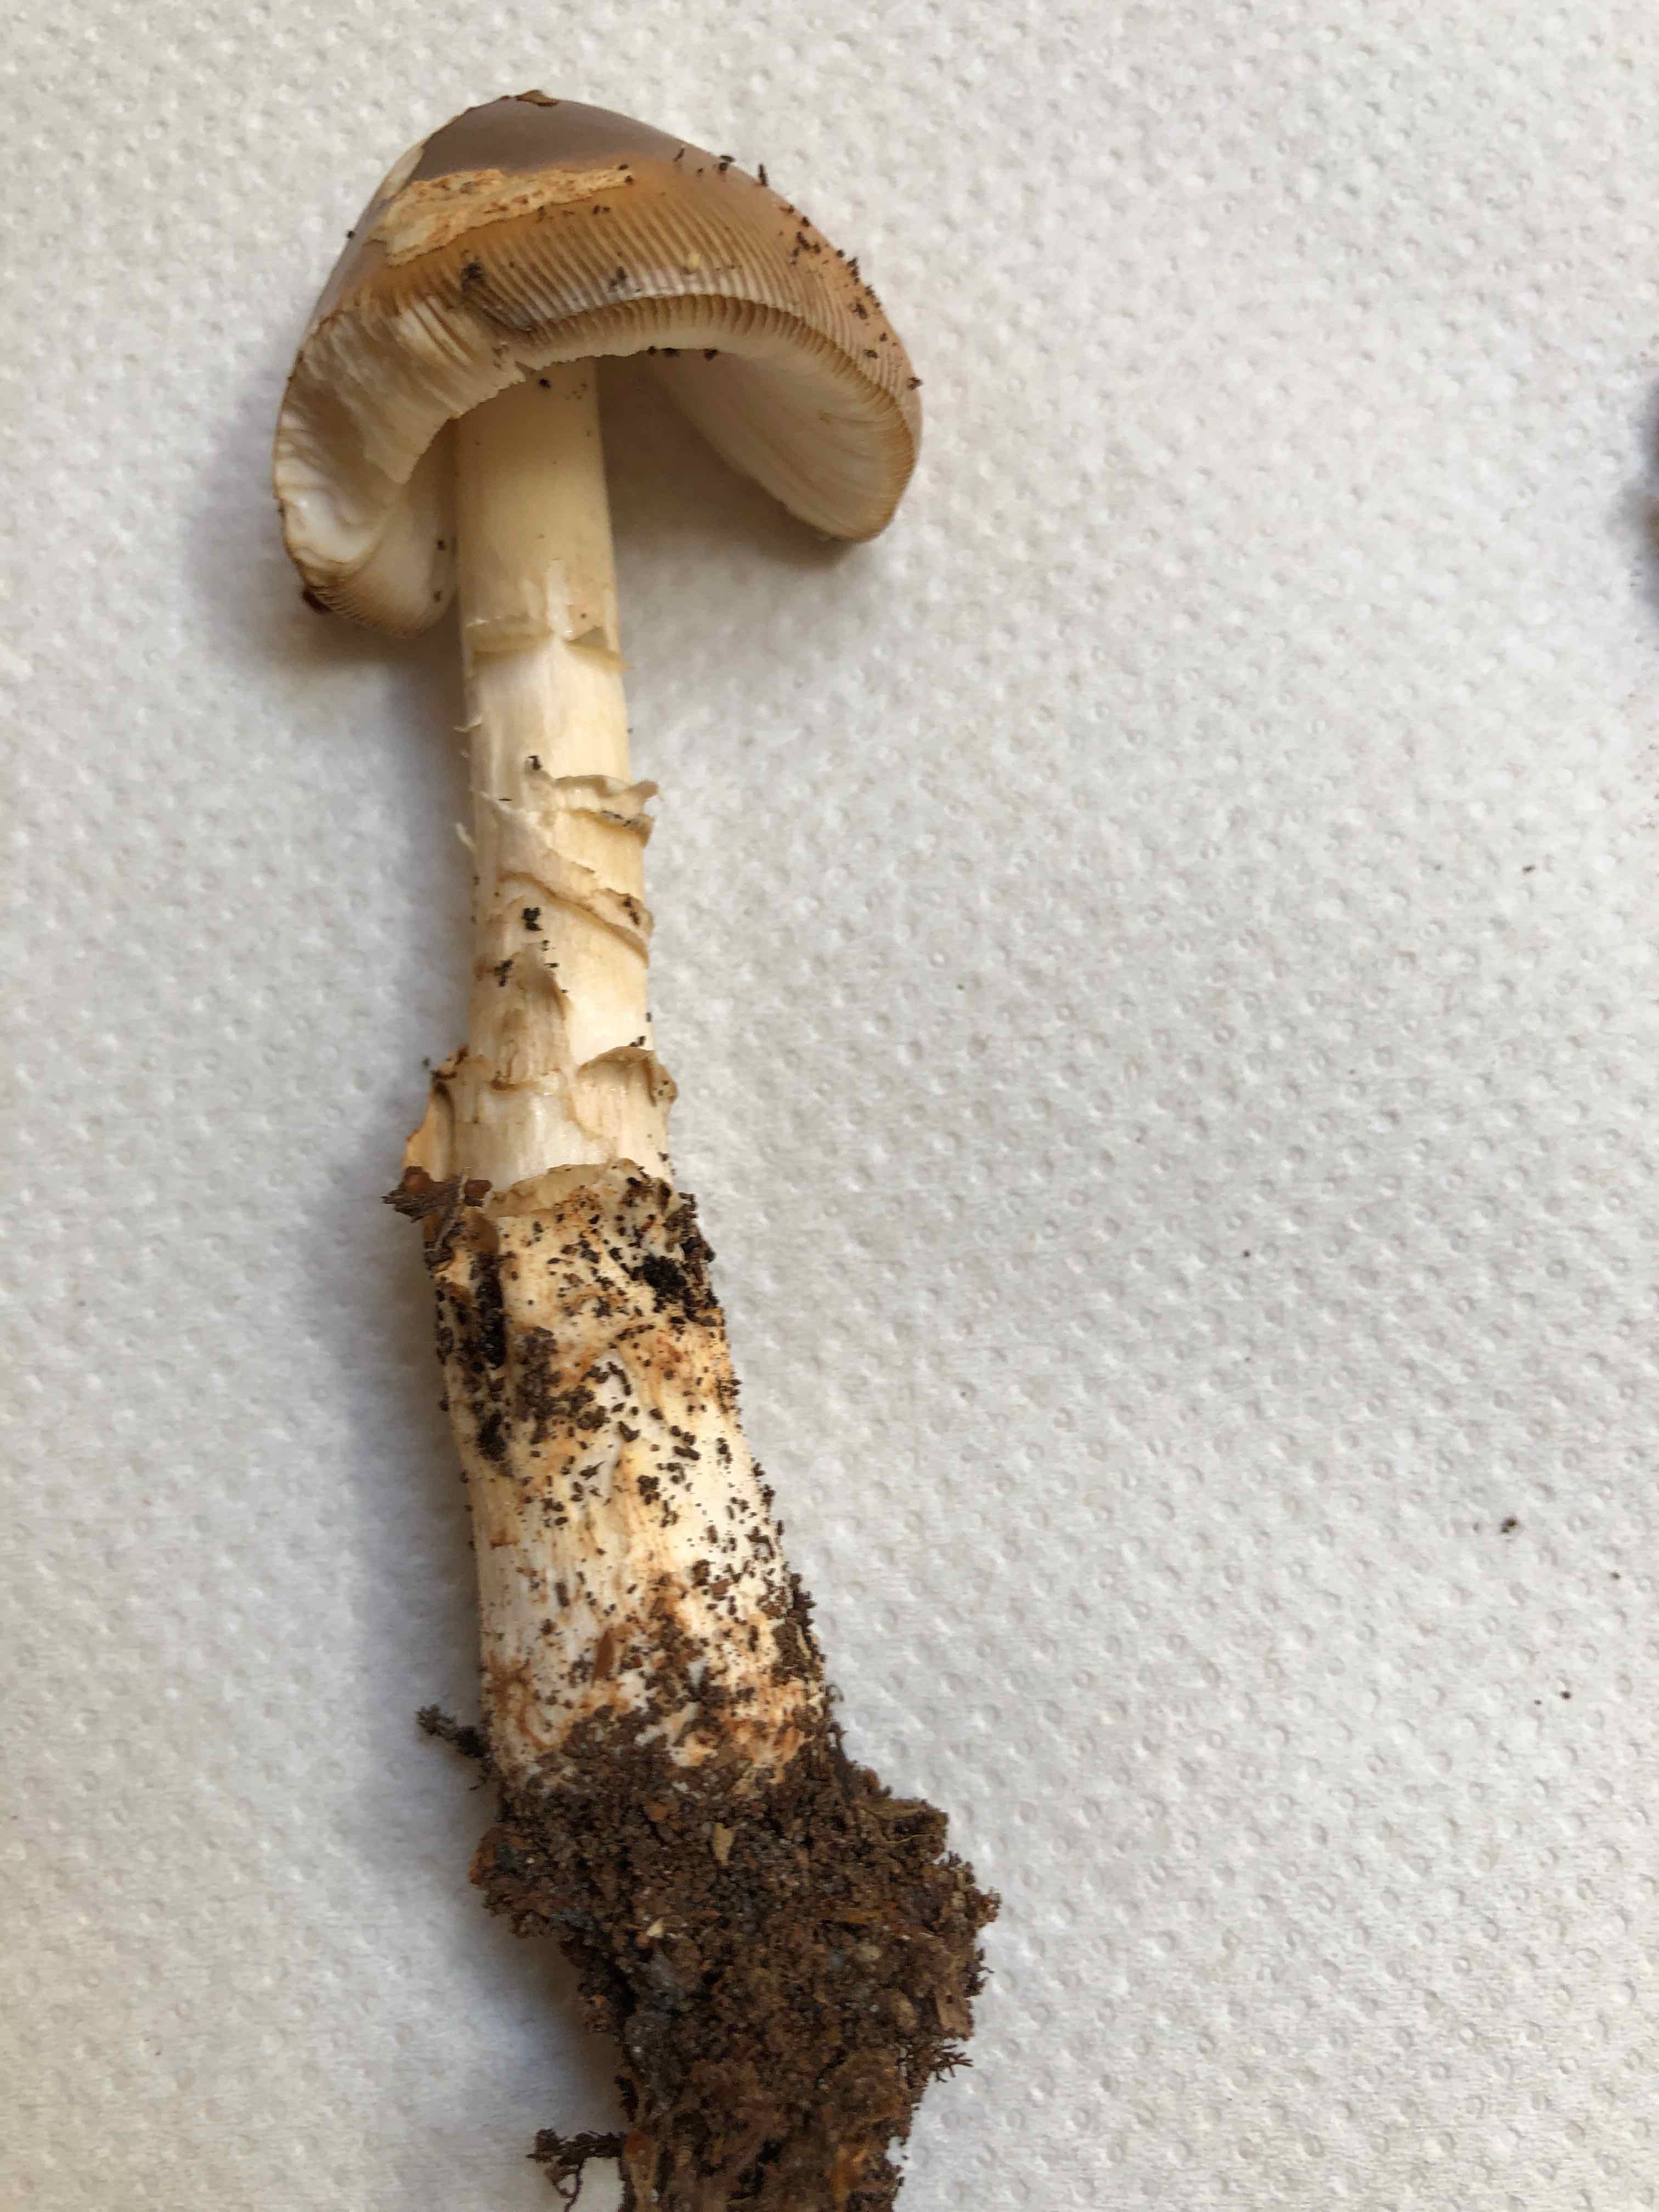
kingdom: Fungi
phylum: Basidiomycota
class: Agaricomycetes
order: Agaricales
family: Amanitaceae
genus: Amanita
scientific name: Amanita fulva
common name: brun kam-fluesvamp
